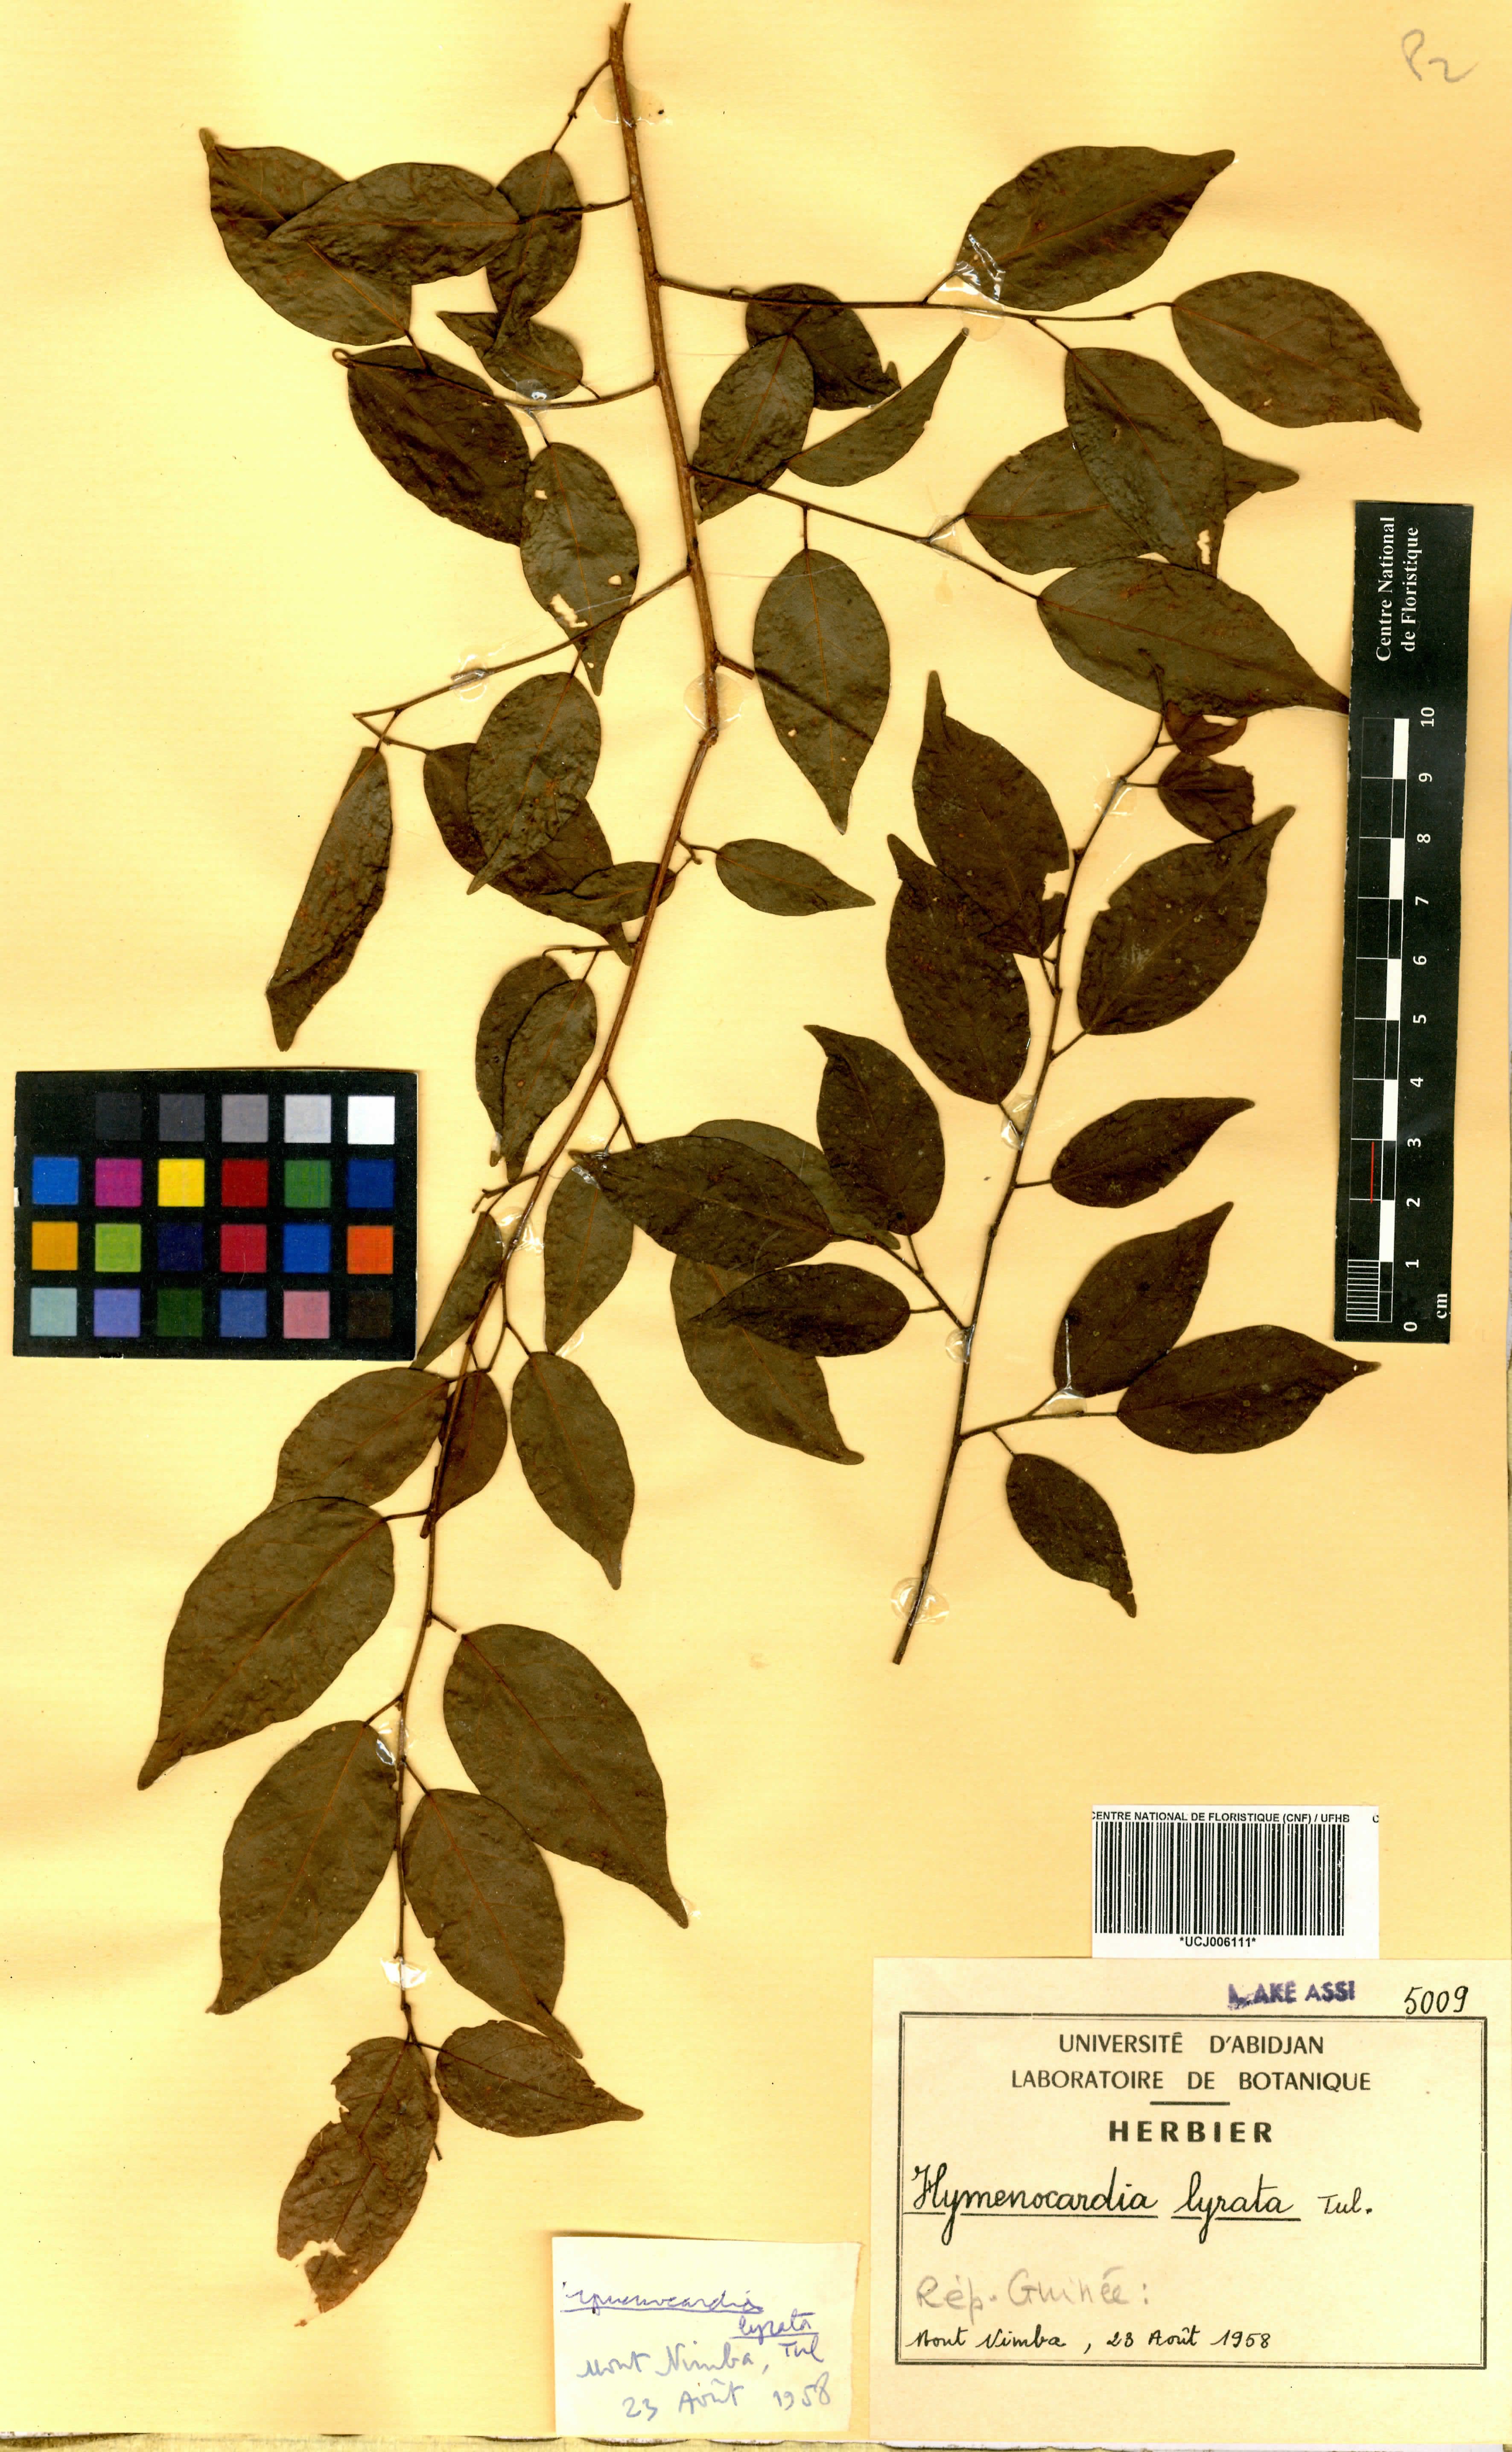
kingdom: Plantae
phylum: Tracheophyta
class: Magnoliopsida
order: Malpighiales
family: Phyllanthaceae
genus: Hymenocardia
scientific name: Hymenocardia lyrata
